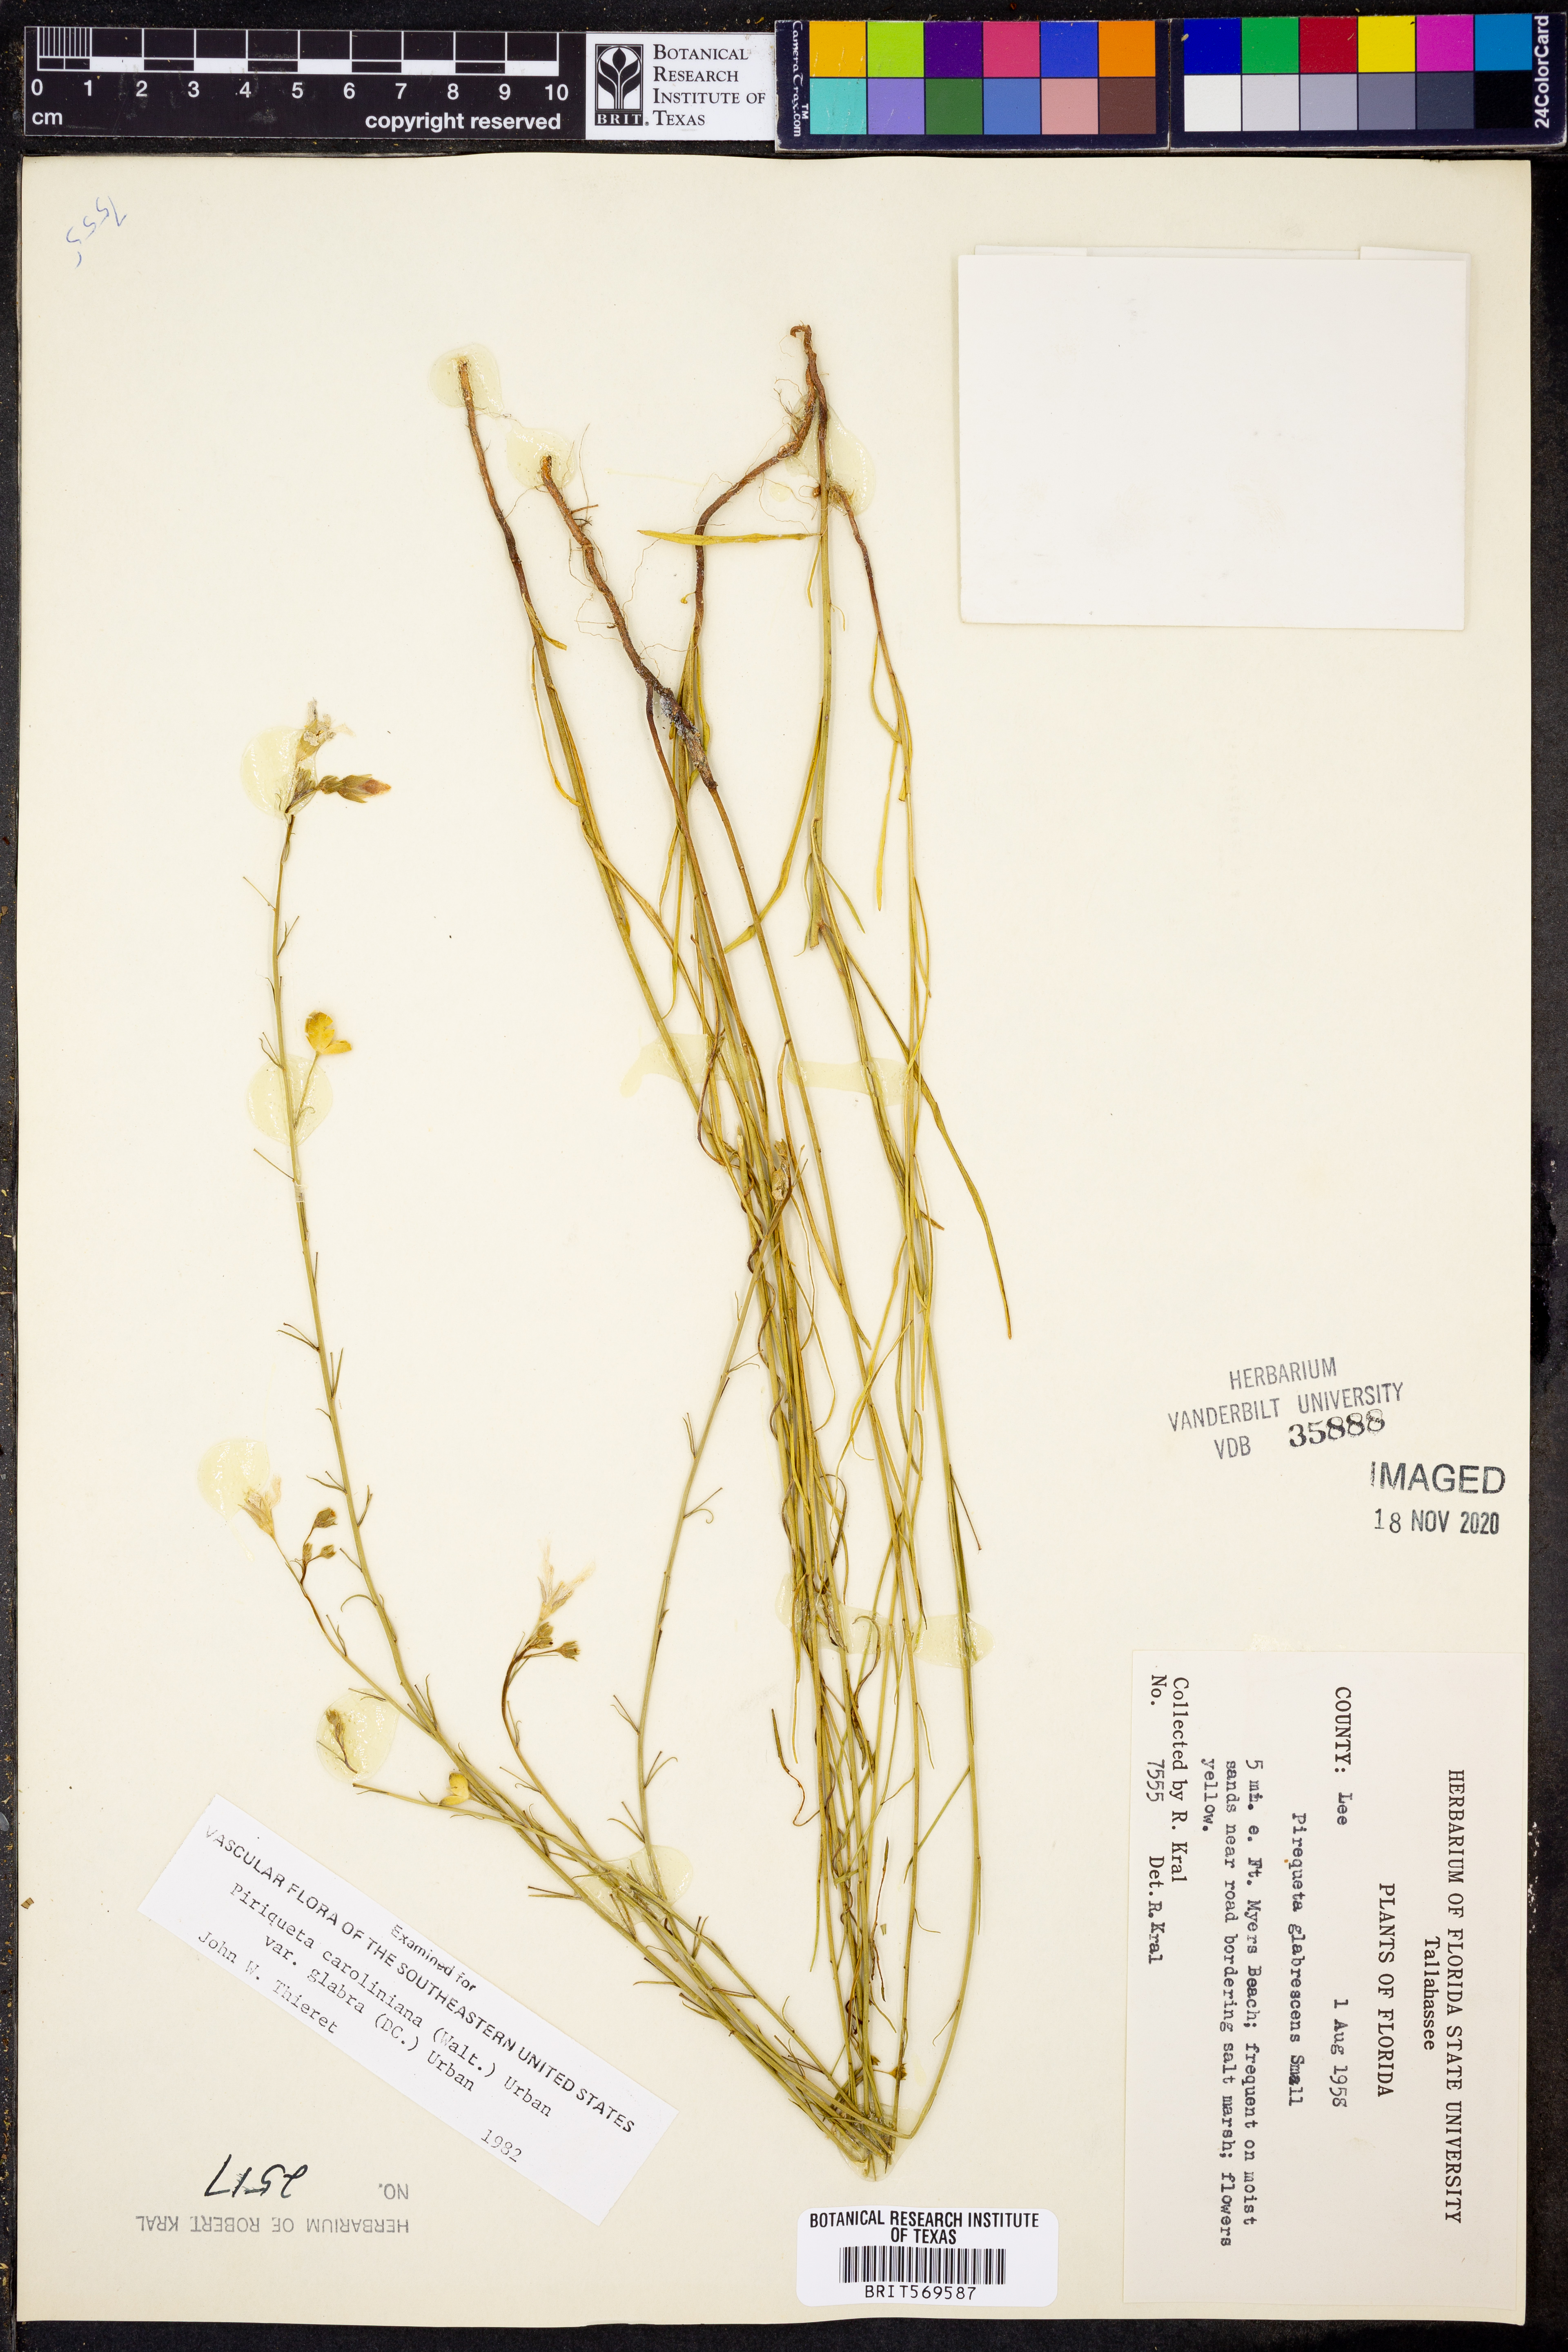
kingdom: Plantae
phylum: Tracheophyta
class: Magnoliopsida
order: Malpighiales
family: Turneraceae
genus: Piriqueta
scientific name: Piriqueta cistoides
